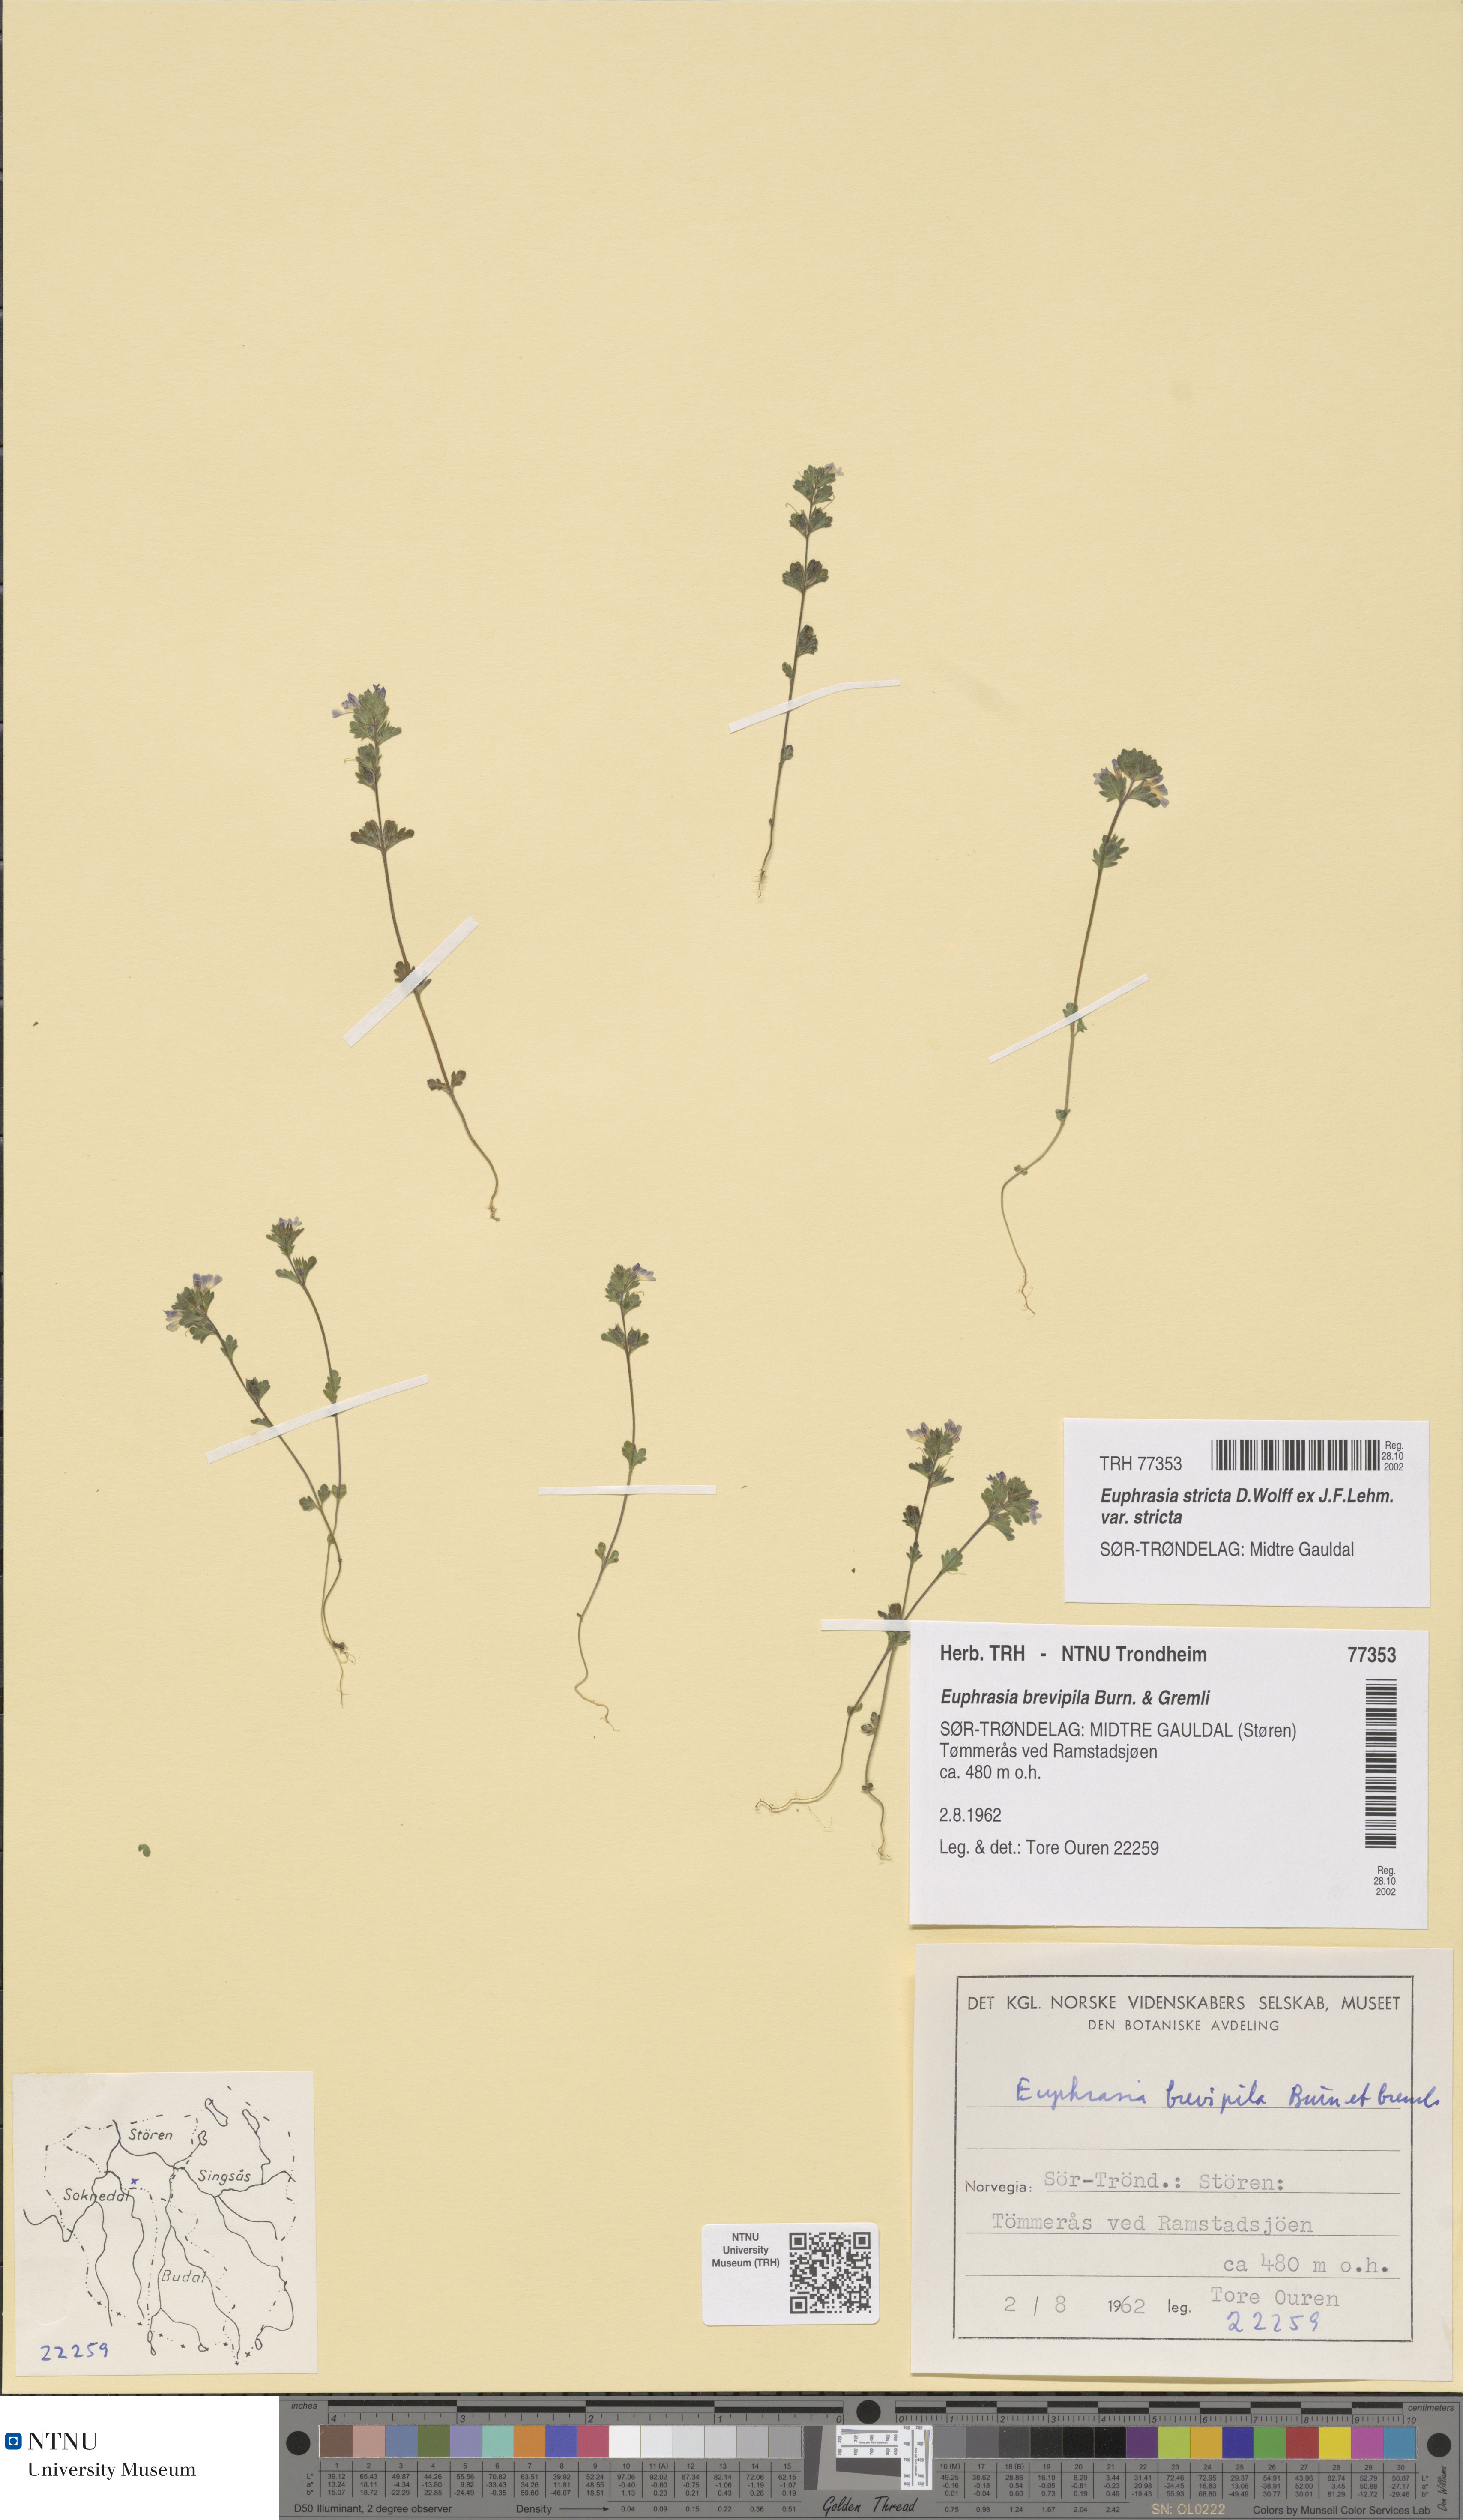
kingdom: Plantae
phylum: Tracheophyta
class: Magnoliopsida
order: Lamiales
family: Orobanchaceae
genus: Euphrasia
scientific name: Euphrasia vernalis
